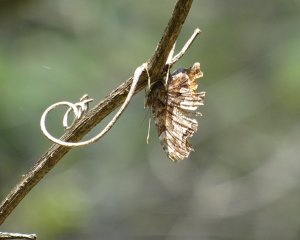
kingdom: Animalia
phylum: Arthropoda
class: Insecta
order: Lepidoptera
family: Nymphalidae
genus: Polygonia
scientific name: Polygonia comma
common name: Eastern Comma
